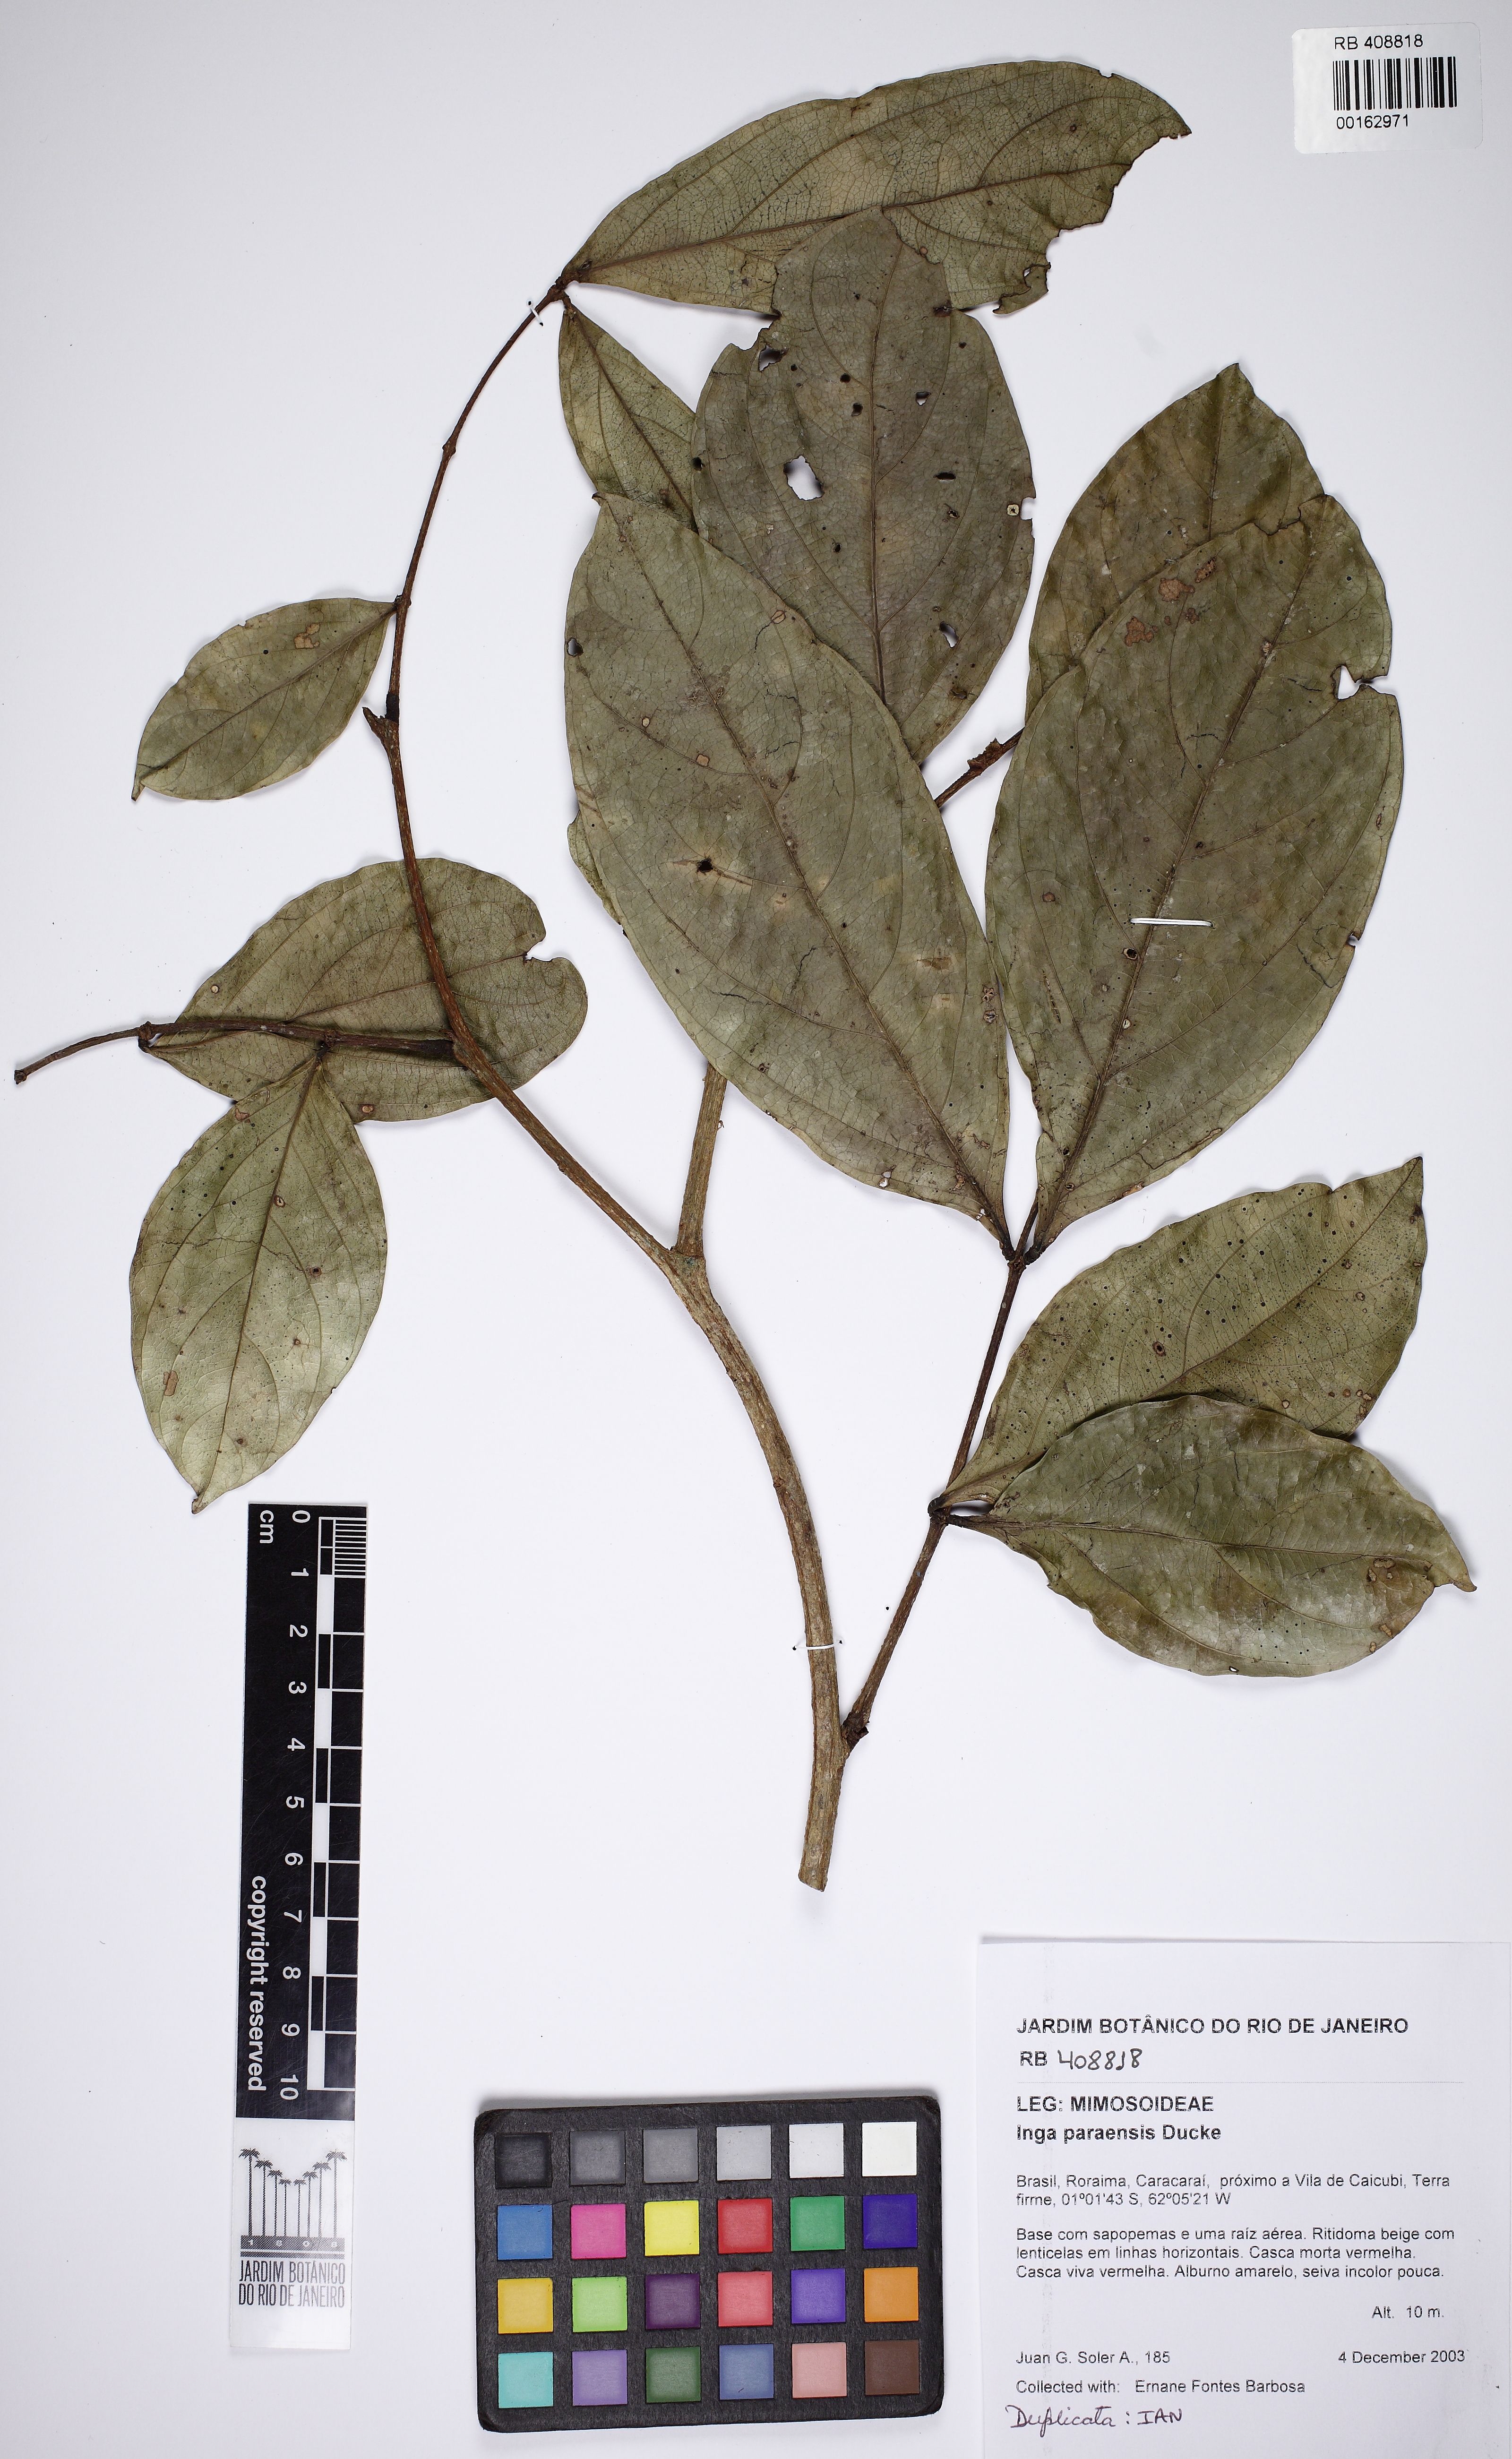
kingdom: Plantae
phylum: Tracheophyta
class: Magnoliopsida
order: Fabales
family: Fabaceae
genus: Inga
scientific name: Inga paraensis
